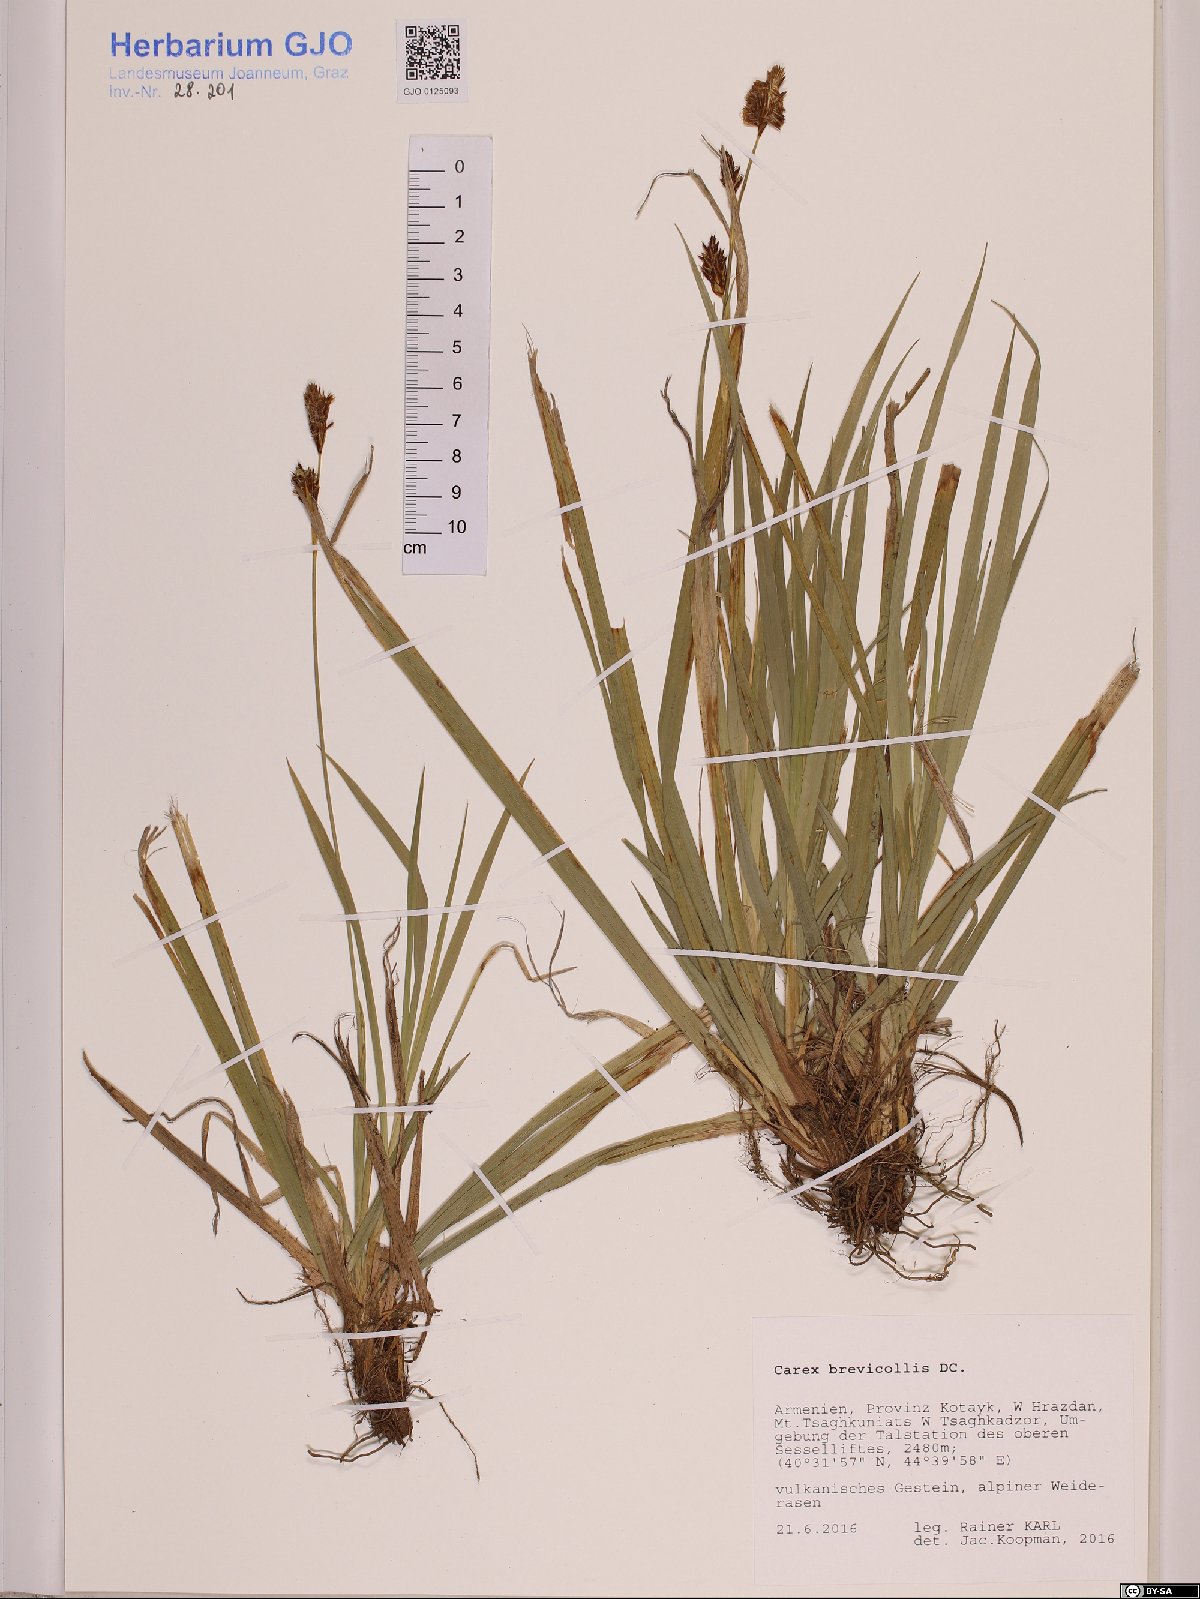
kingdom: Plantae
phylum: Tracheophyta
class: Liliopsida
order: Poales
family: Cyperaceae
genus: Carex
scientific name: Carex brevicollis
